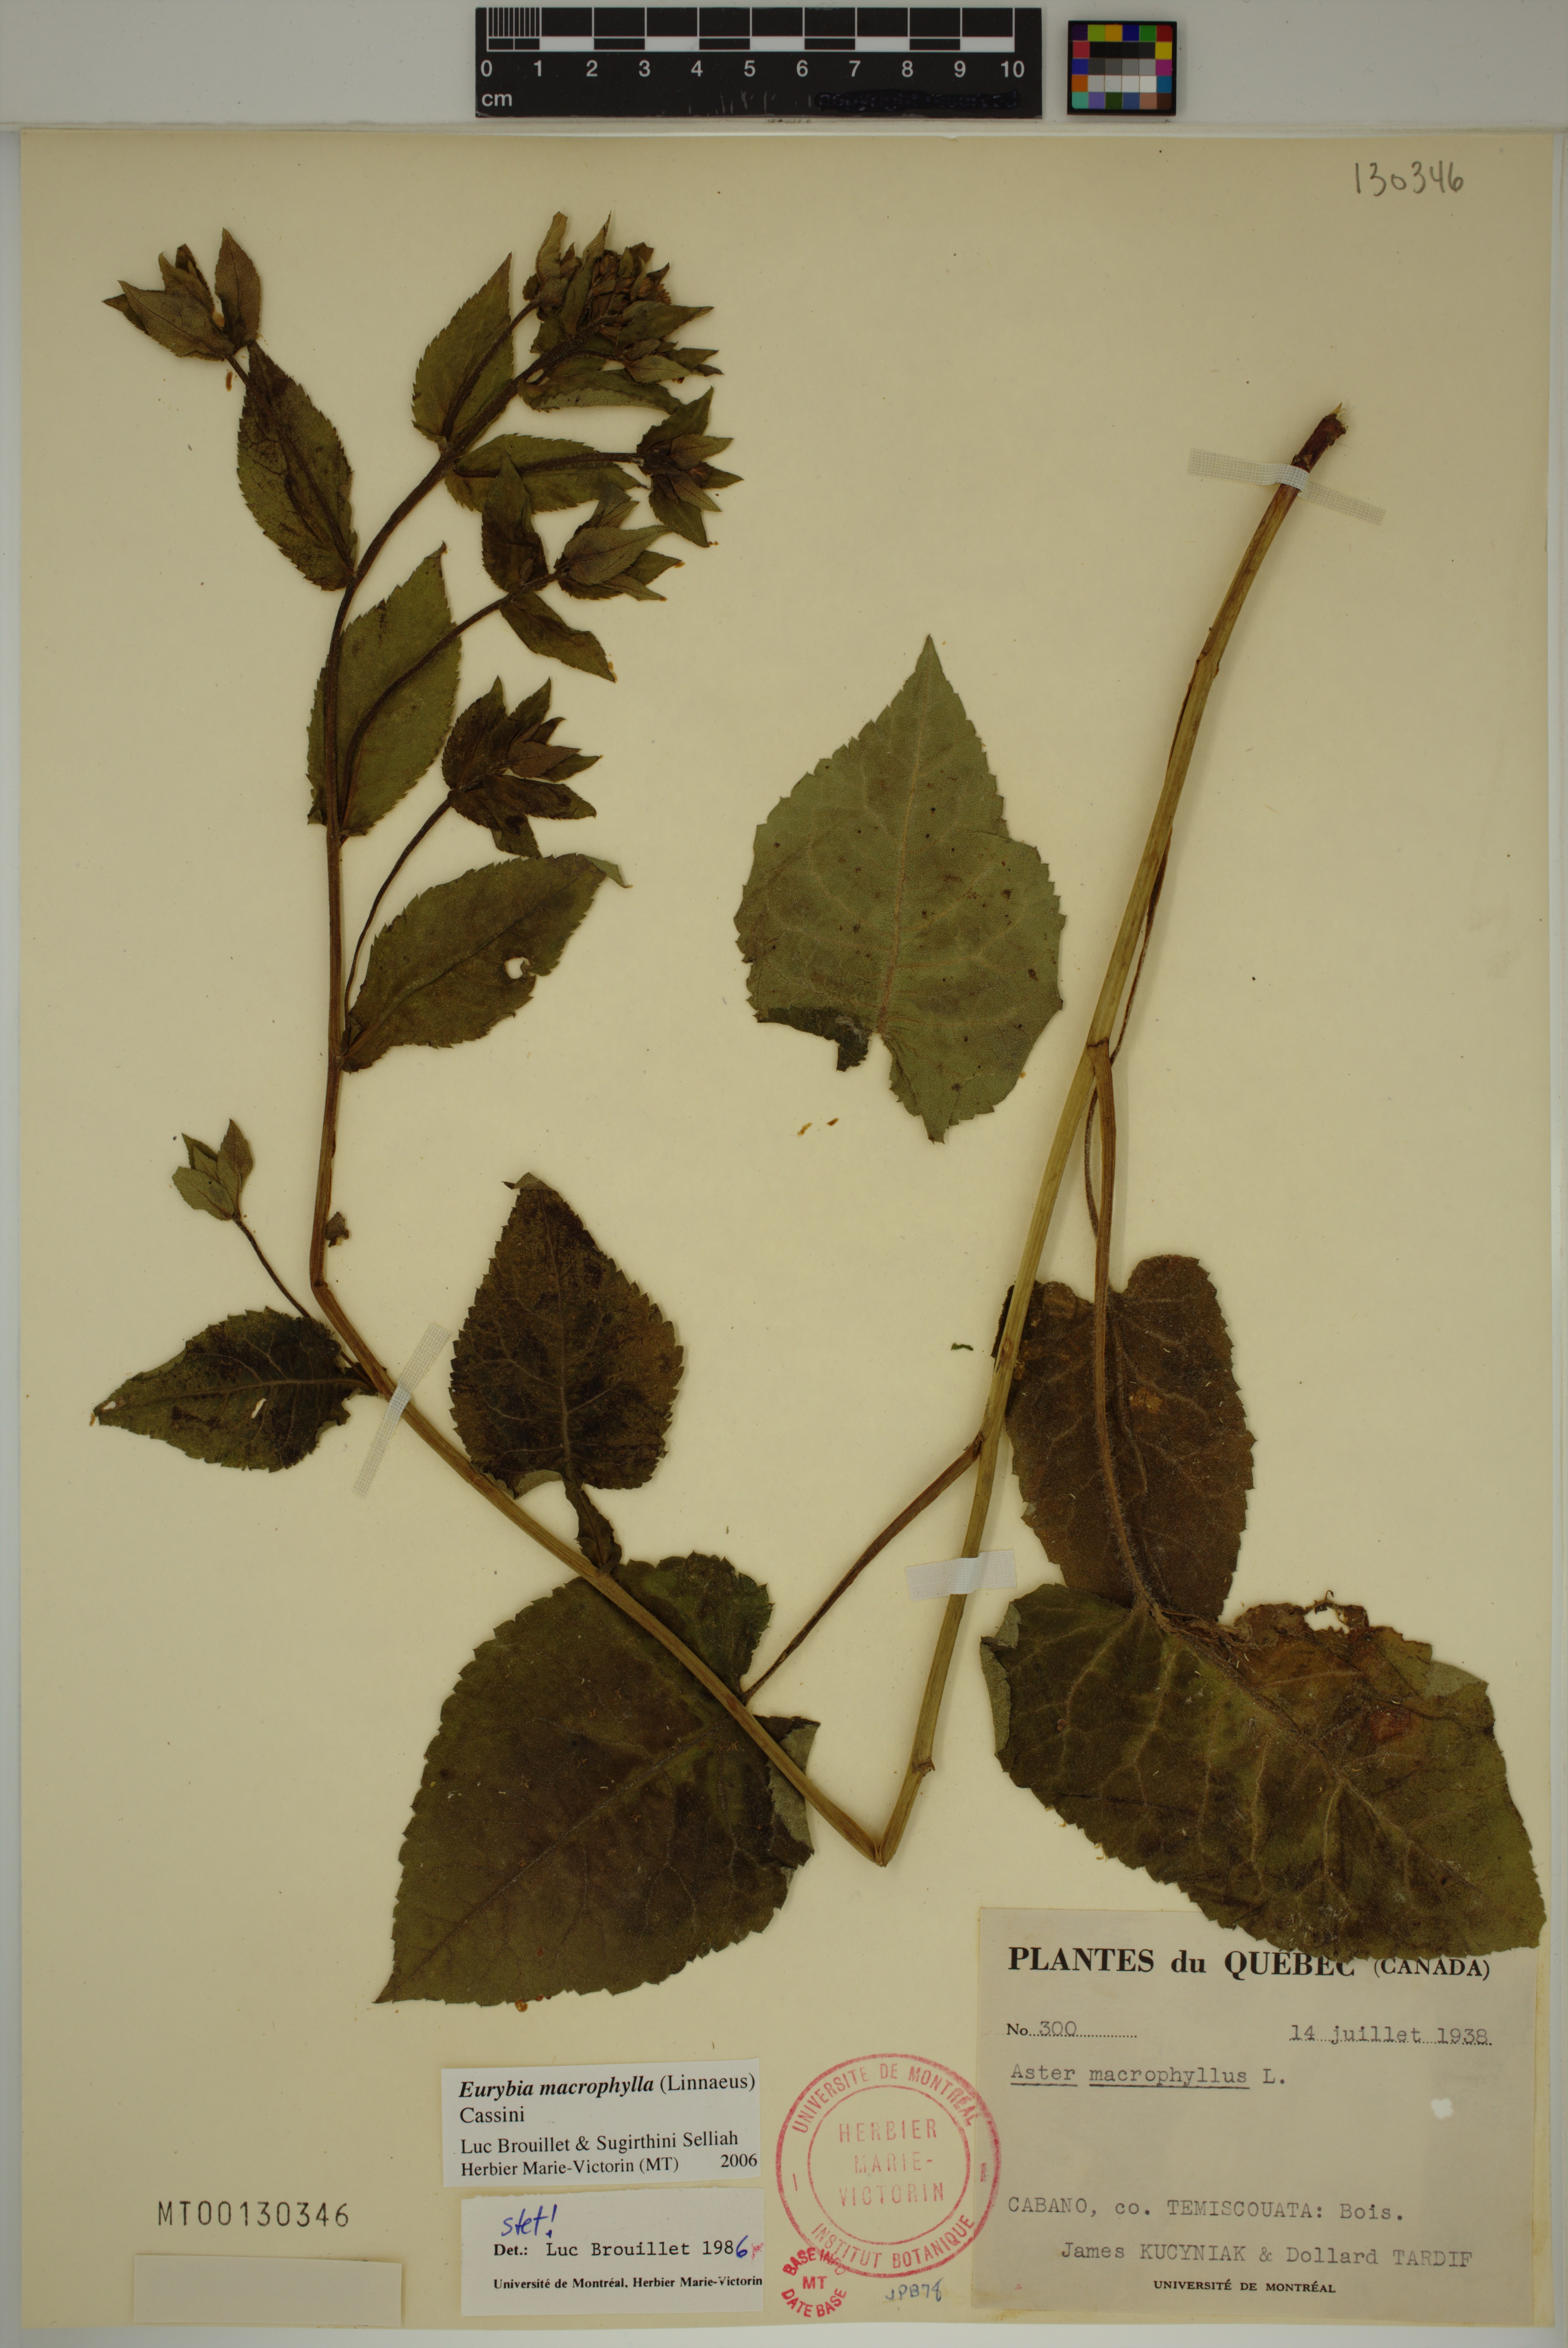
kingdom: Plantae
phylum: Tracheophyta
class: Magnoliopsida
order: Asterales
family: Asteraceae
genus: Eurybia
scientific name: Eurybia macrophylla
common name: Big-leaved aster
